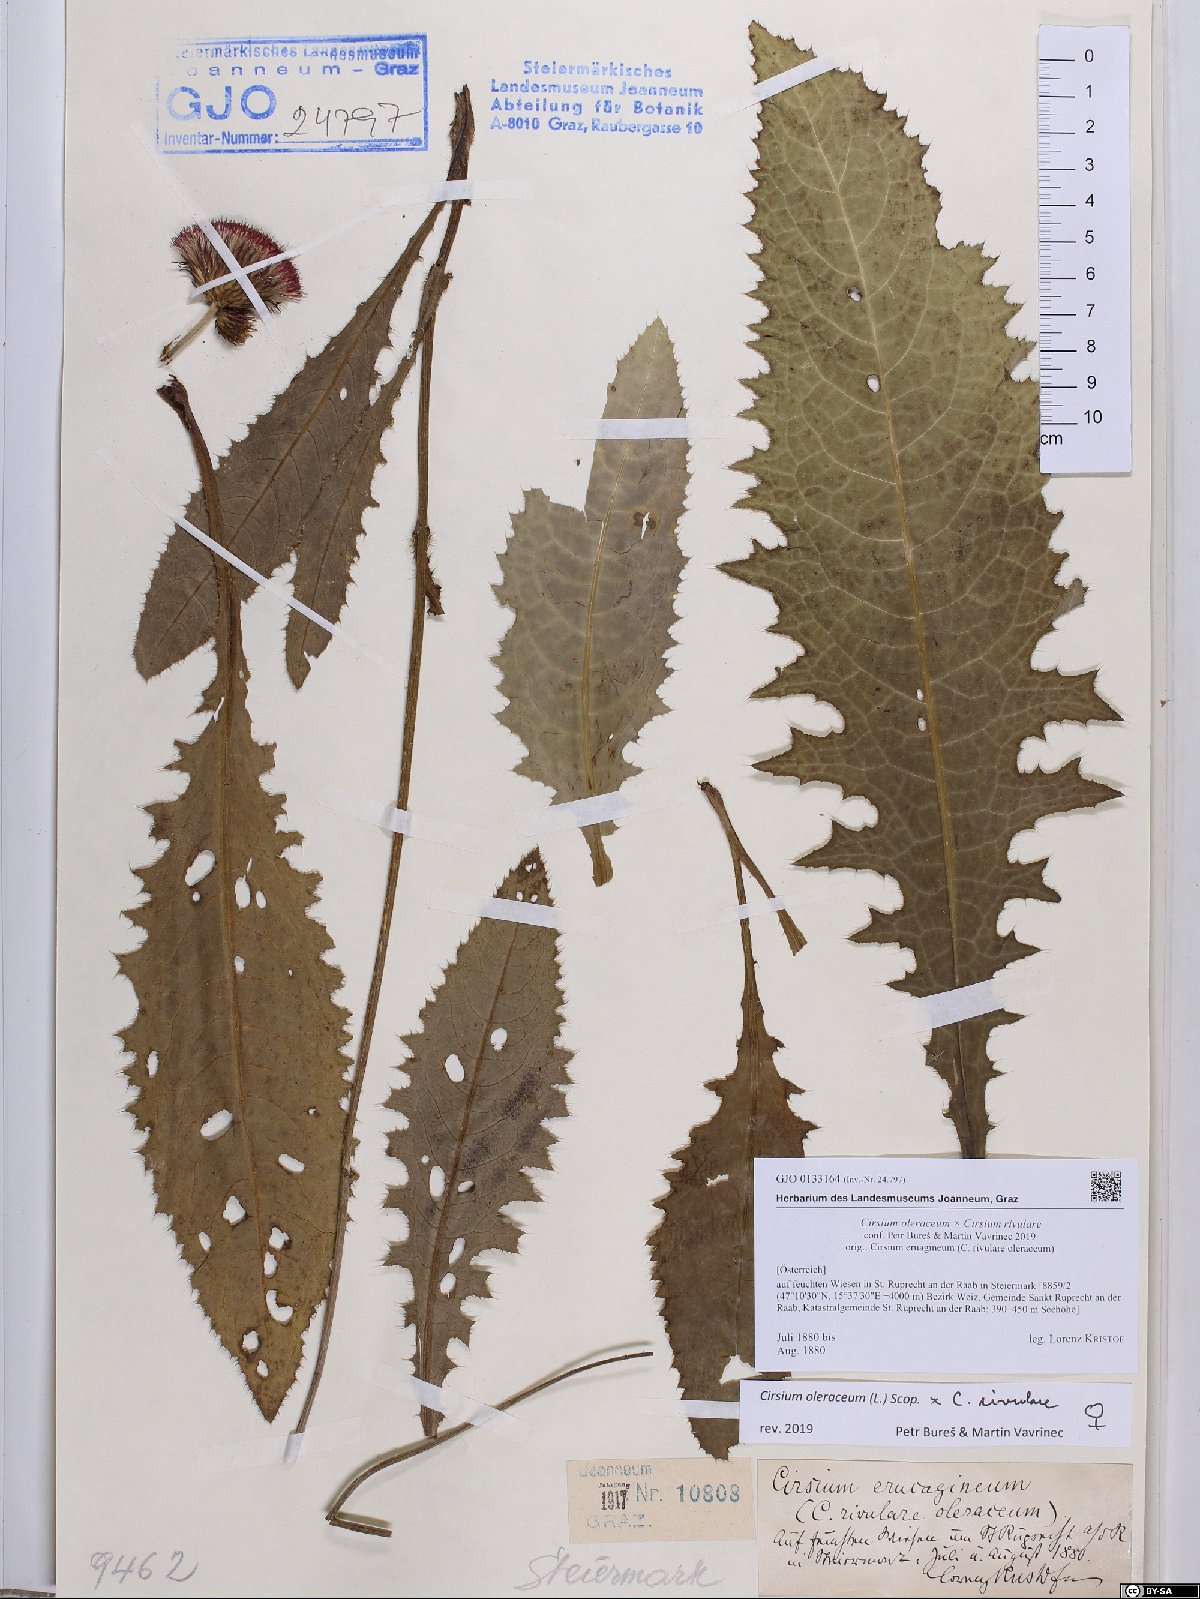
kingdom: Plantae
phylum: Tracheophyta
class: Magnoliopsida
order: Asterales
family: Asteraceae
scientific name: Asteraceae
